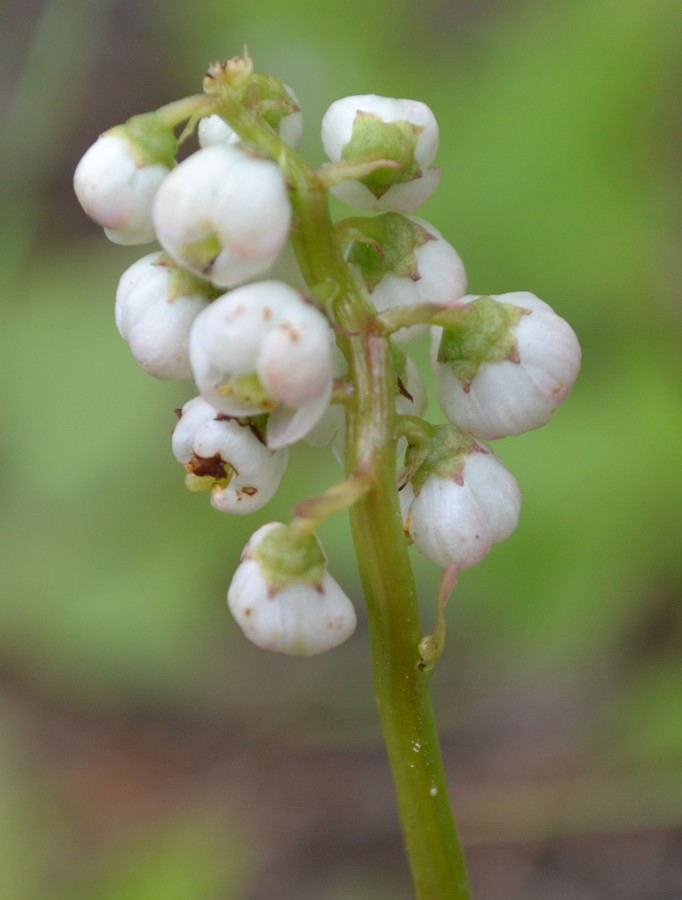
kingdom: Plantae
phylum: Tracheophyta
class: Magnoliopsida
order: Ericales
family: Ericaceae
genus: Pyrola
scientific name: Pyrola minor
